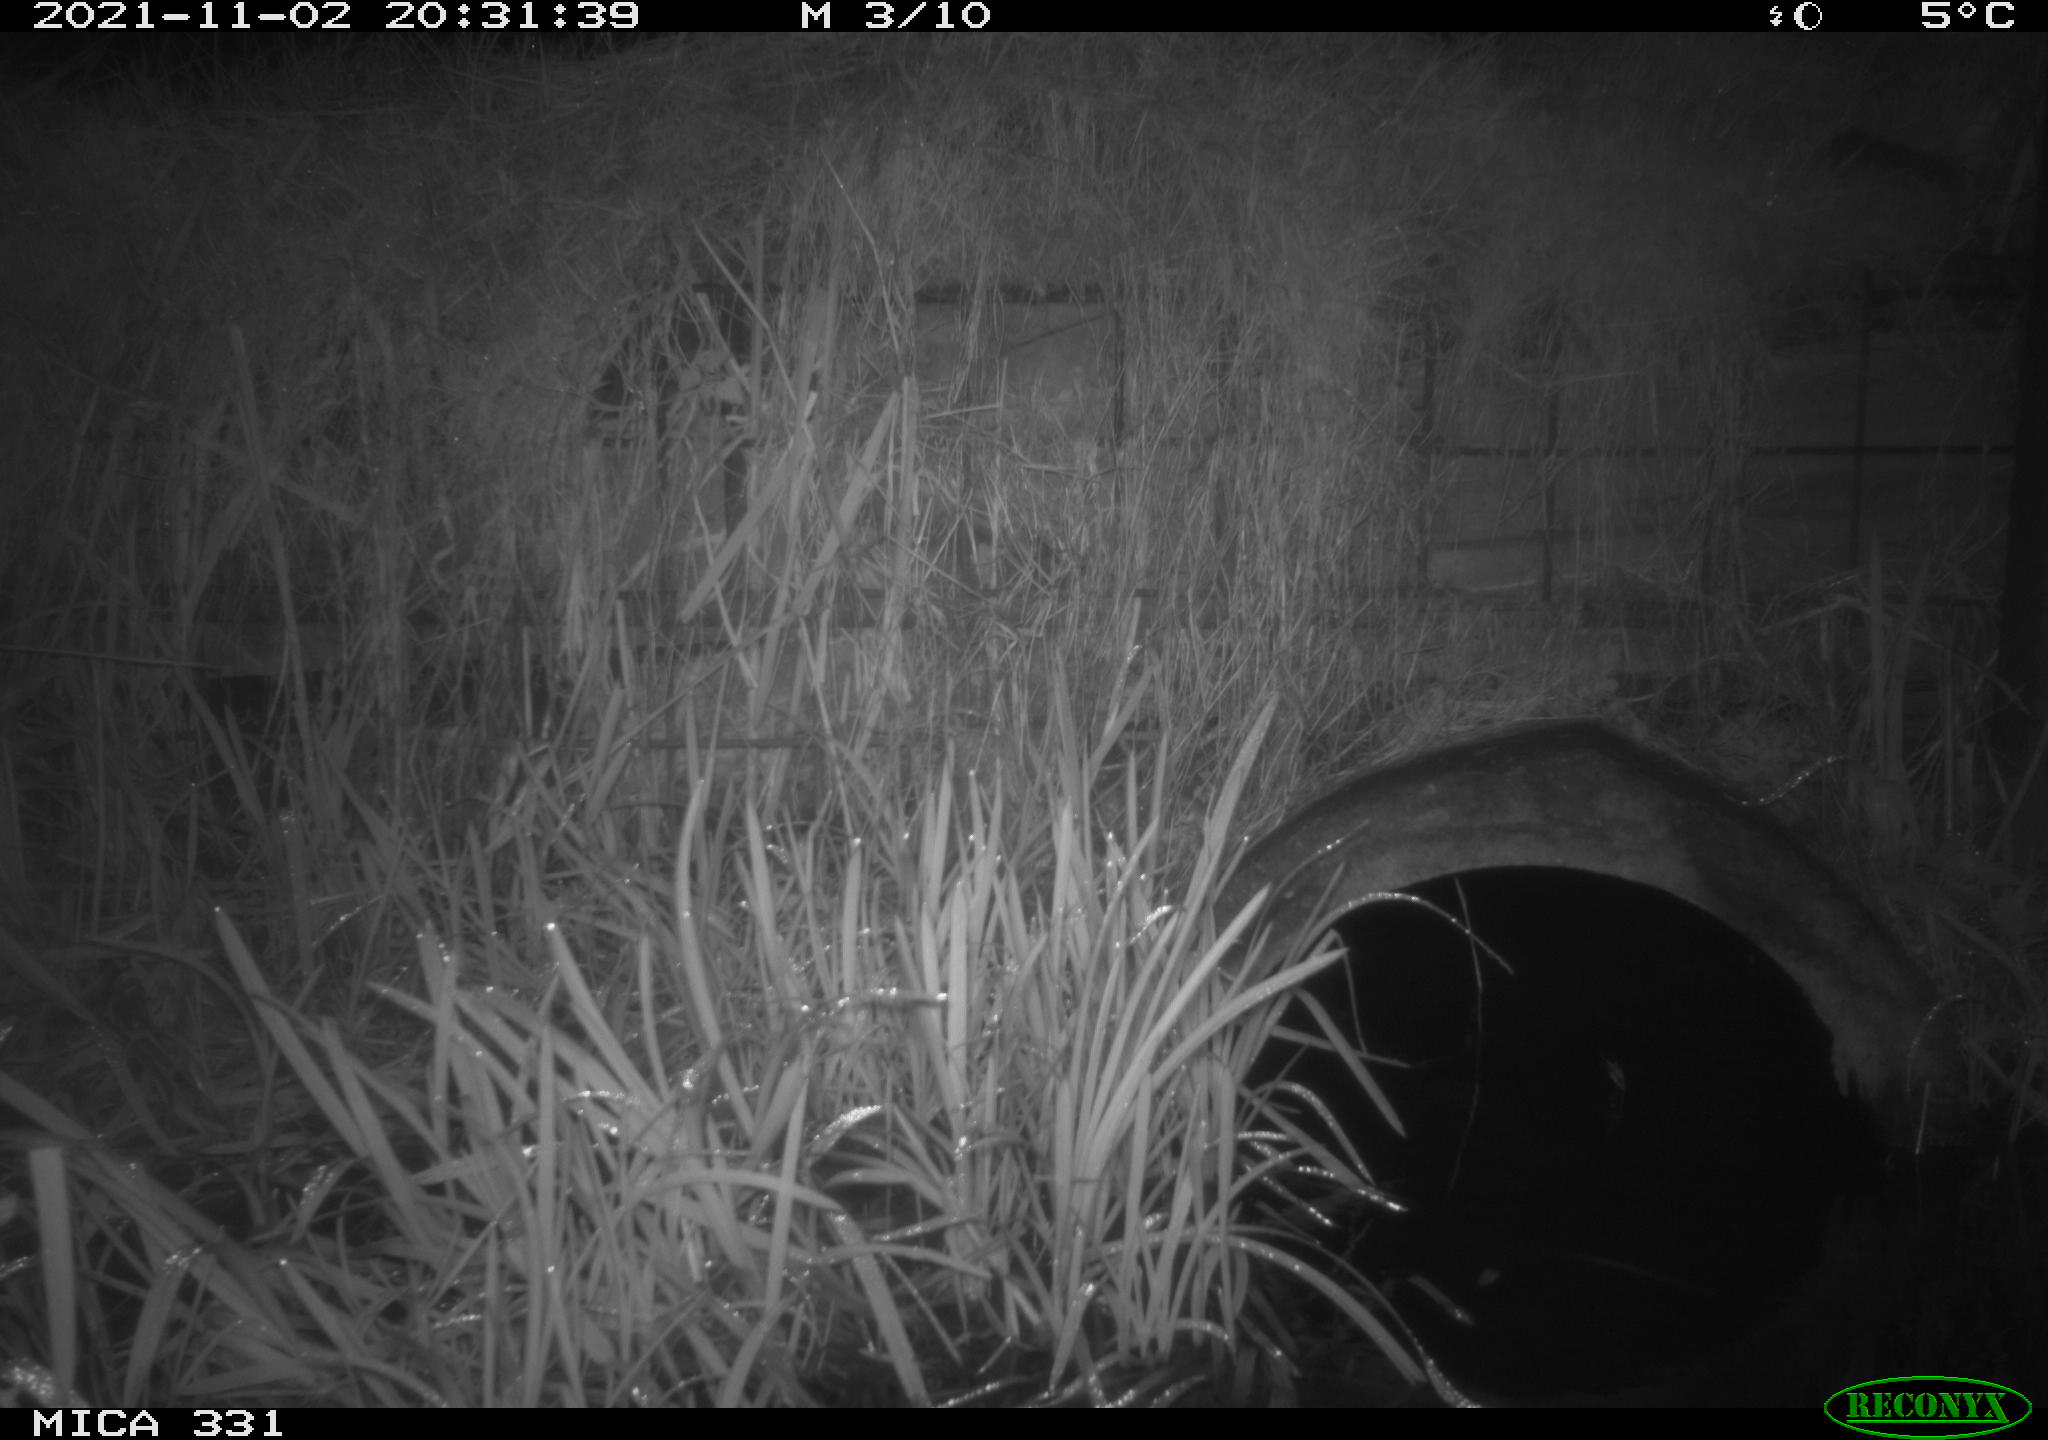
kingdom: Animalia
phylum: Chordata
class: Mammalia
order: Rodentia
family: Muridae
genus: Rattus
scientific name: Rattus norvegicus
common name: Brown rat
